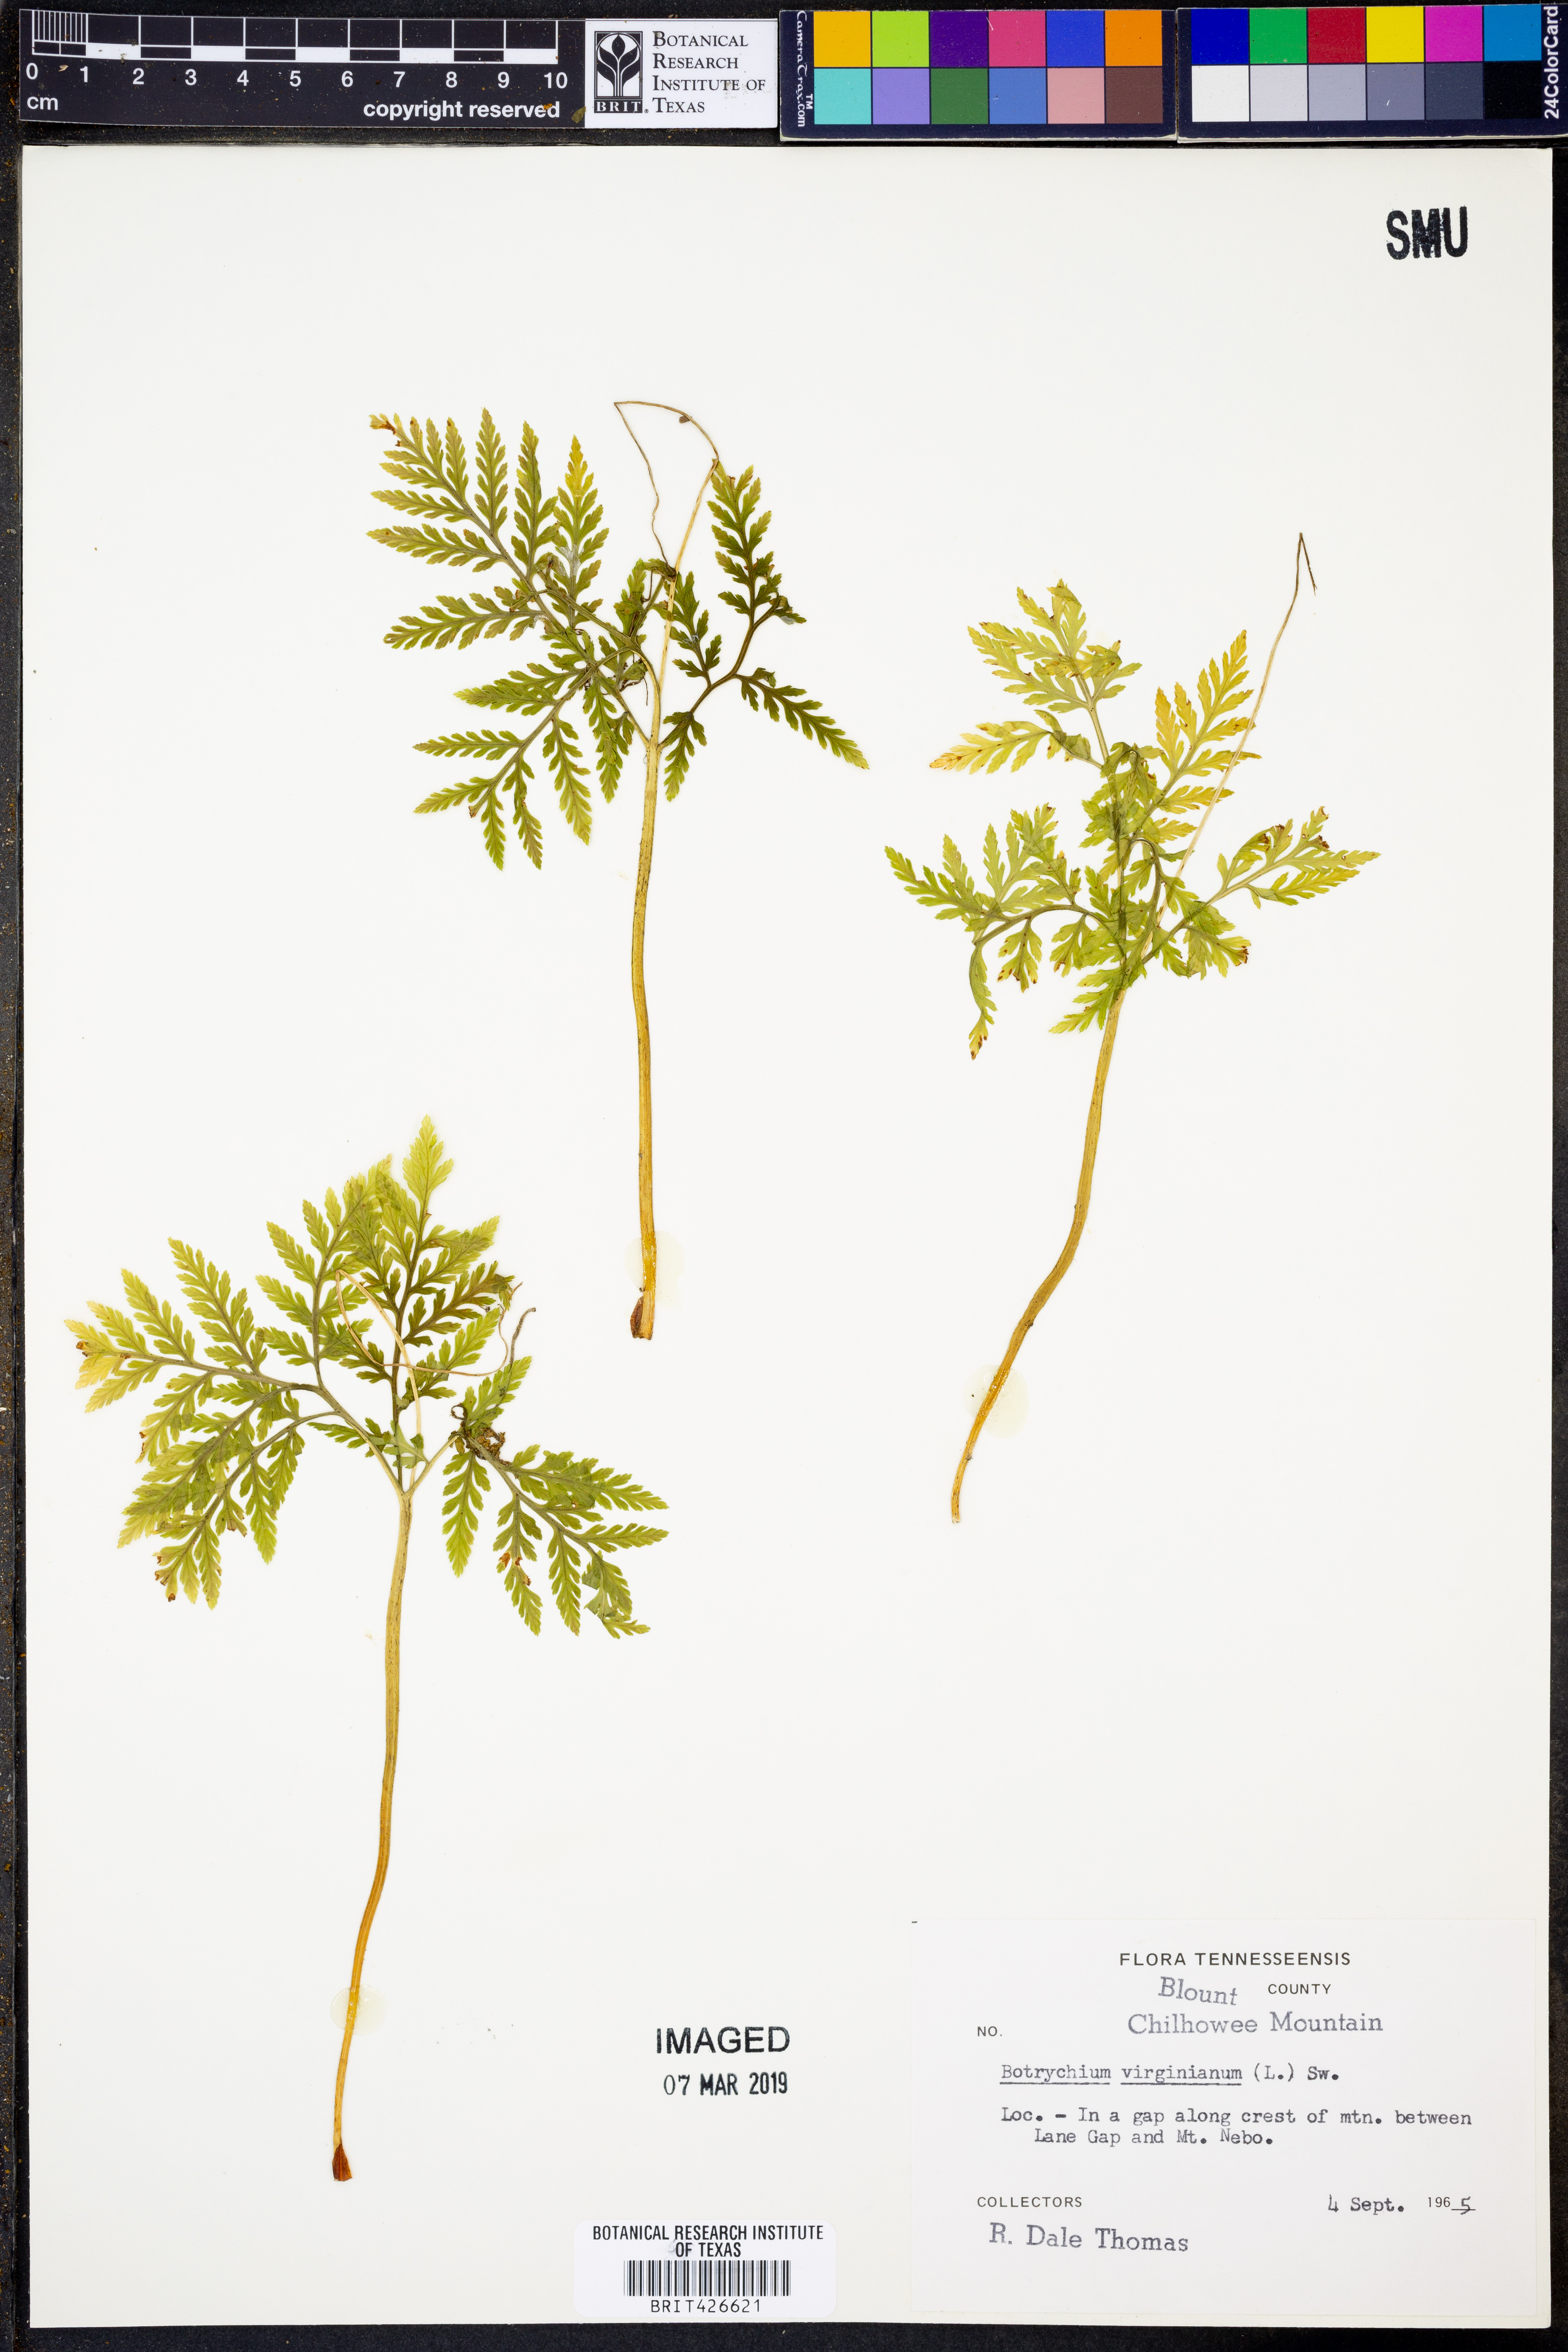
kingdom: Plantae
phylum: Tracheophyta
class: Polypodiopsida
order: Ophioglossales
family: Ophioglossaceae
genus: Botrypus
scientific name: Botrypus virginianus
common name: Common grapefern
